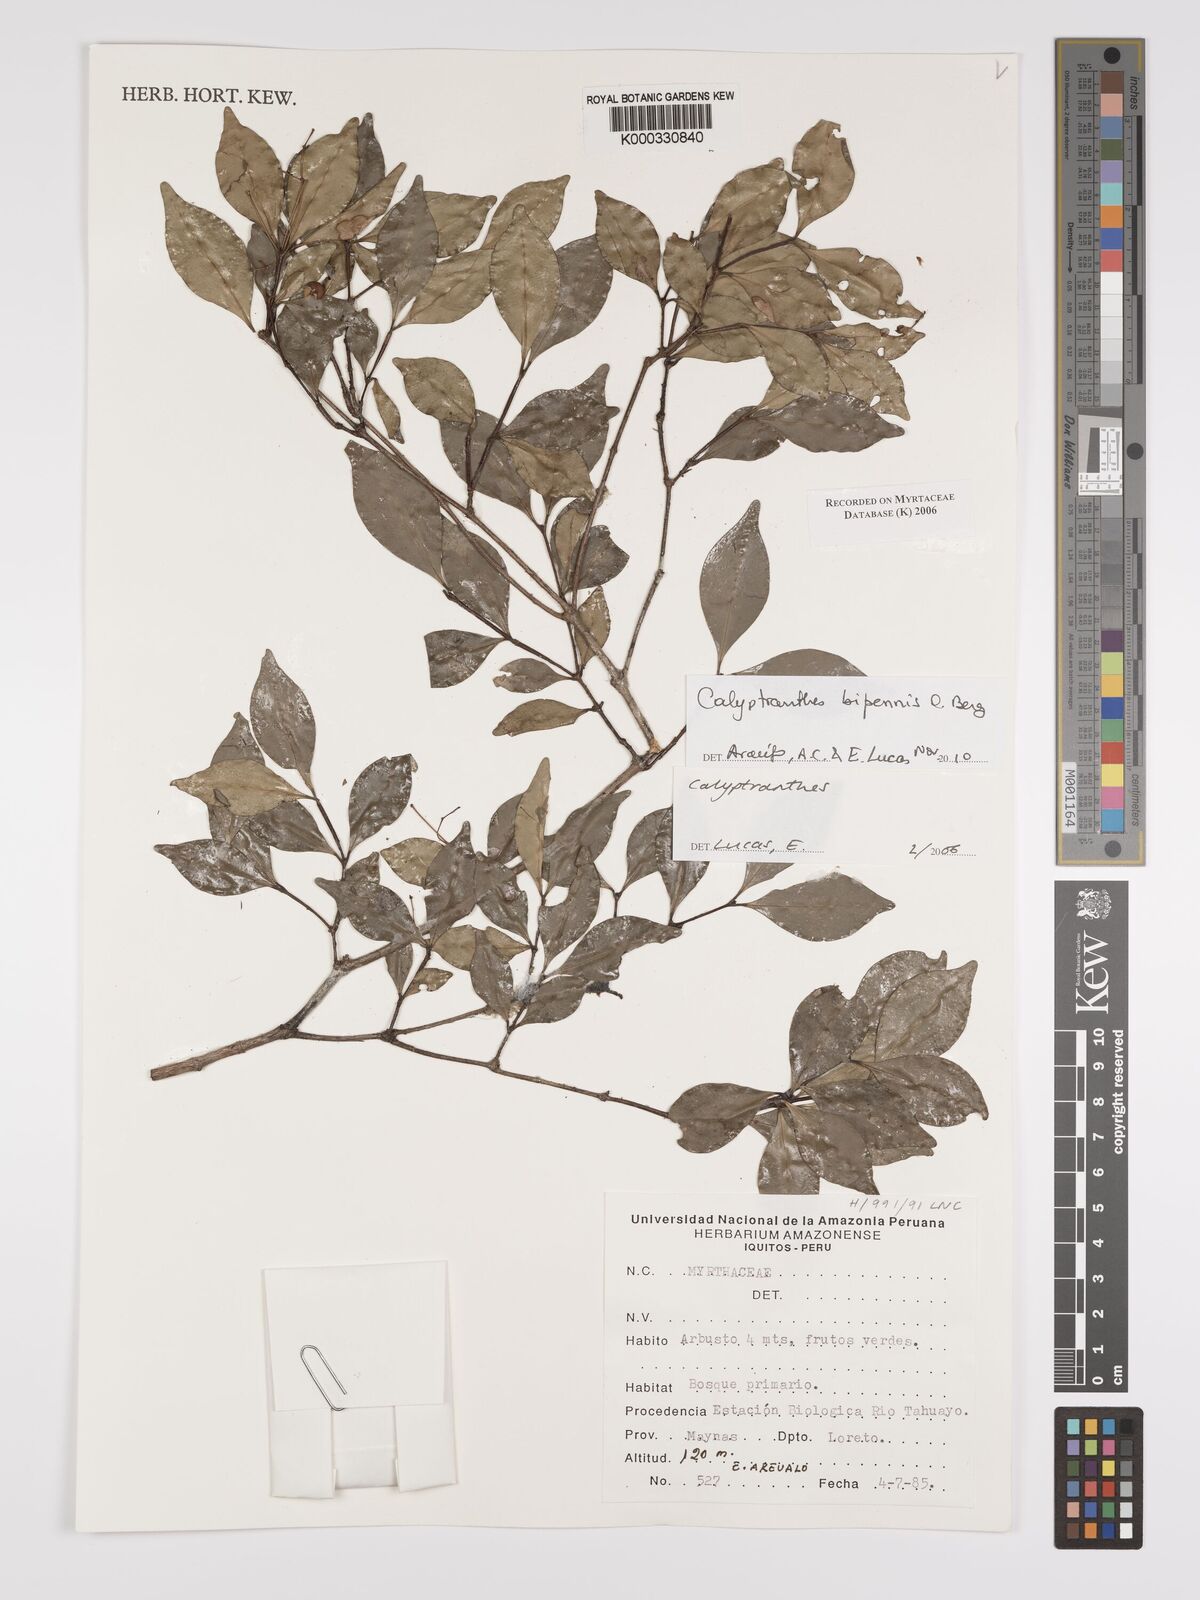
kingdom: Plantae
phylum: Tracheophyta
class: Magnoliopsida
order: Myrtales
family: Myrtaceae
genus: Calyptranthes
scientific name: Calyptranthes
